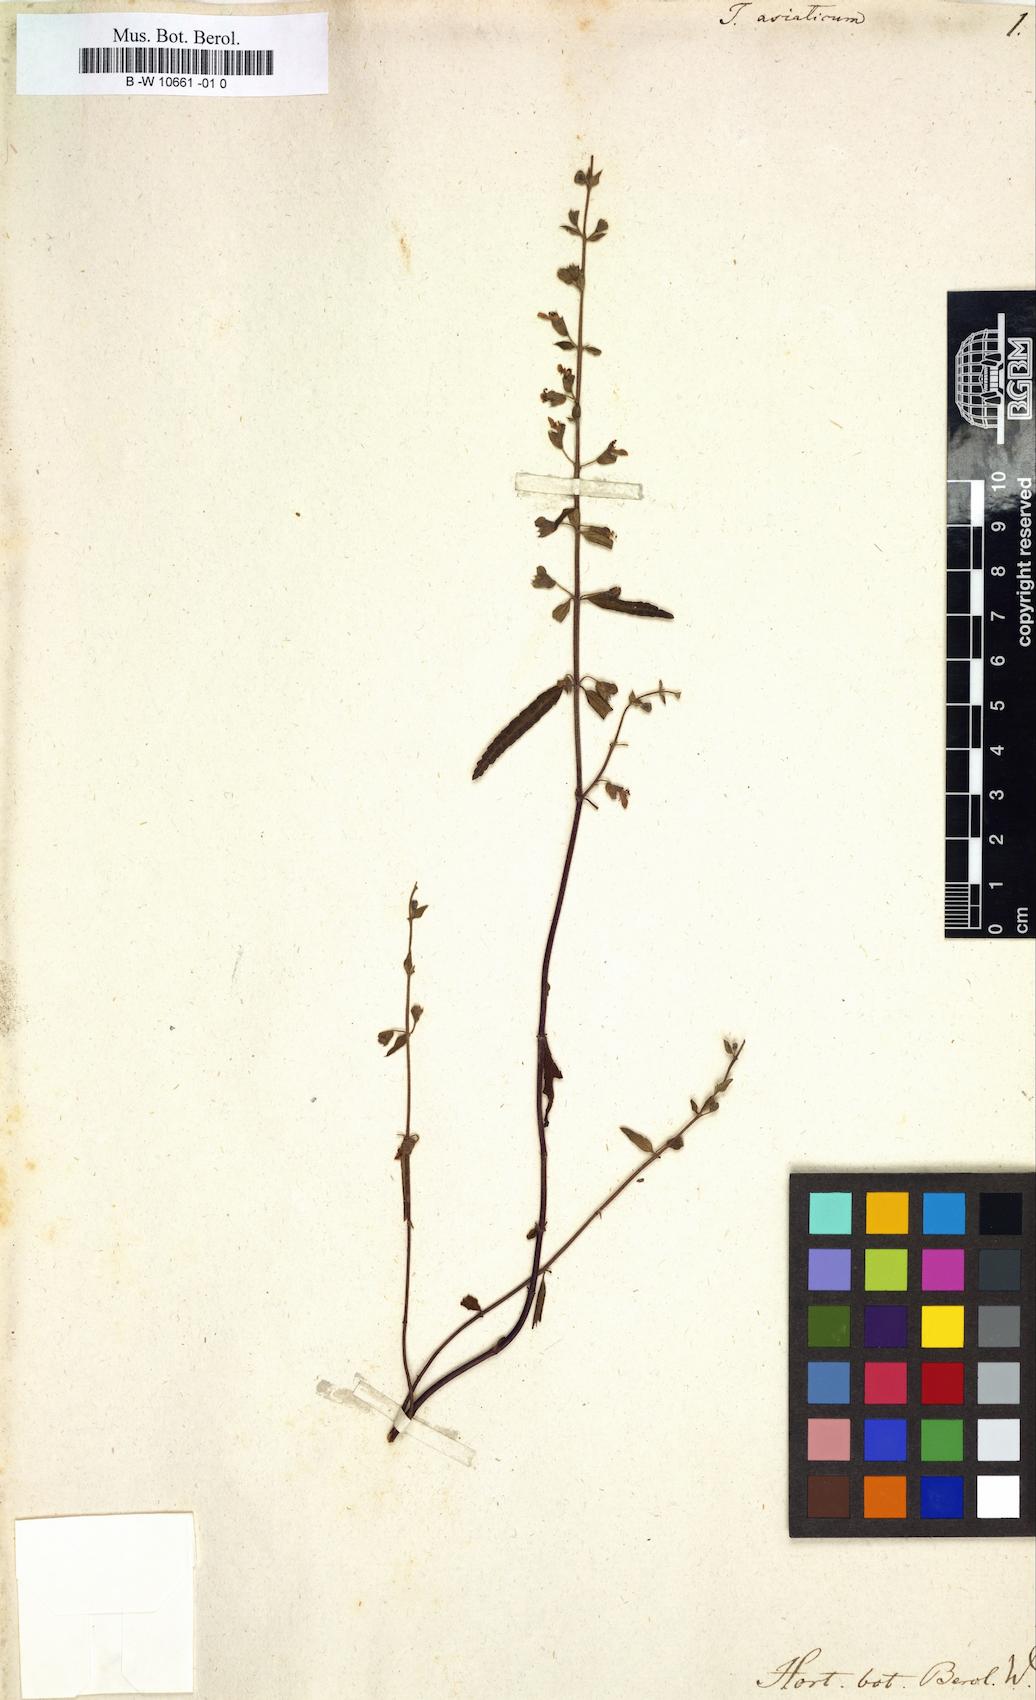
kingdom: Plantae
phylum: Tracheophyta
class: Magnoliopsida
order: Lamiales
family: Lamiaceae
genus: Teucrium
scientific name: Teucrium asiaticum
